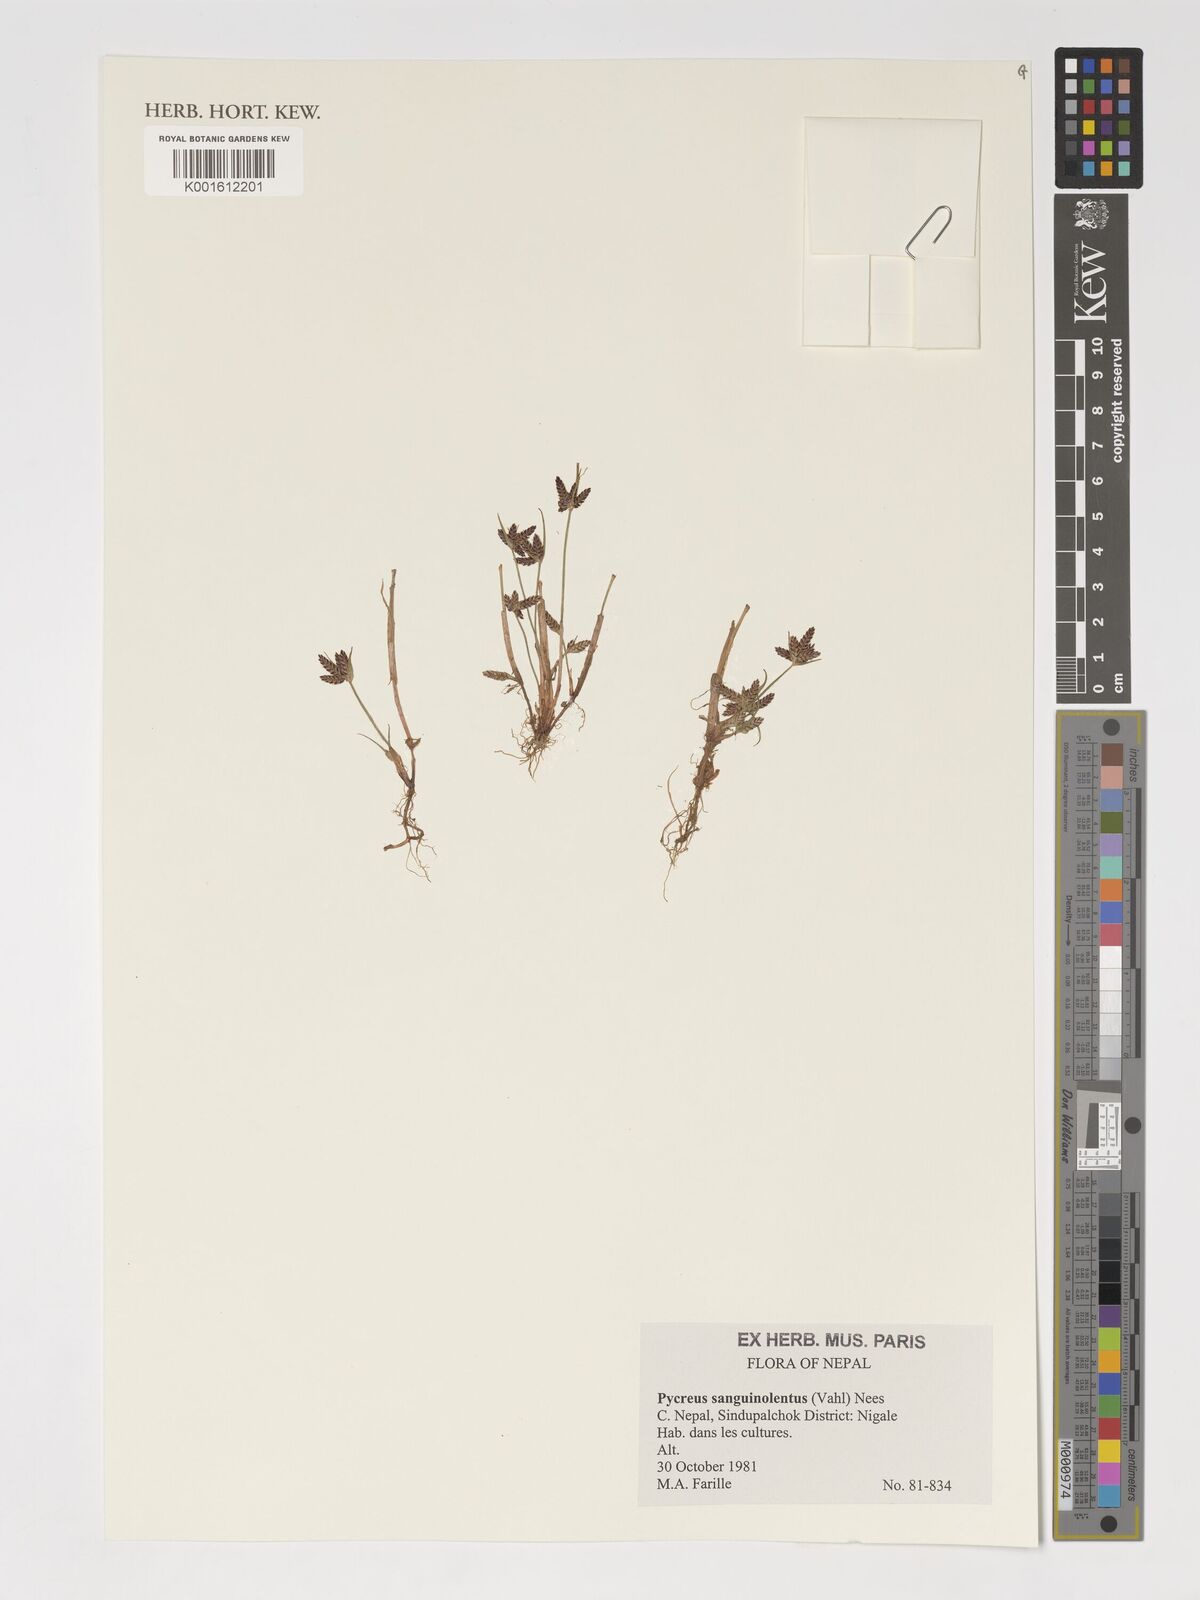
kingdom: Plantae
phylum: Tracheophyta
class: Liliopsida
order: Poales
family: Cyperaceae
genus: Cyperus
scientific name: Cyperus sanguinolentus
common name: Purpleglume flatsedge
